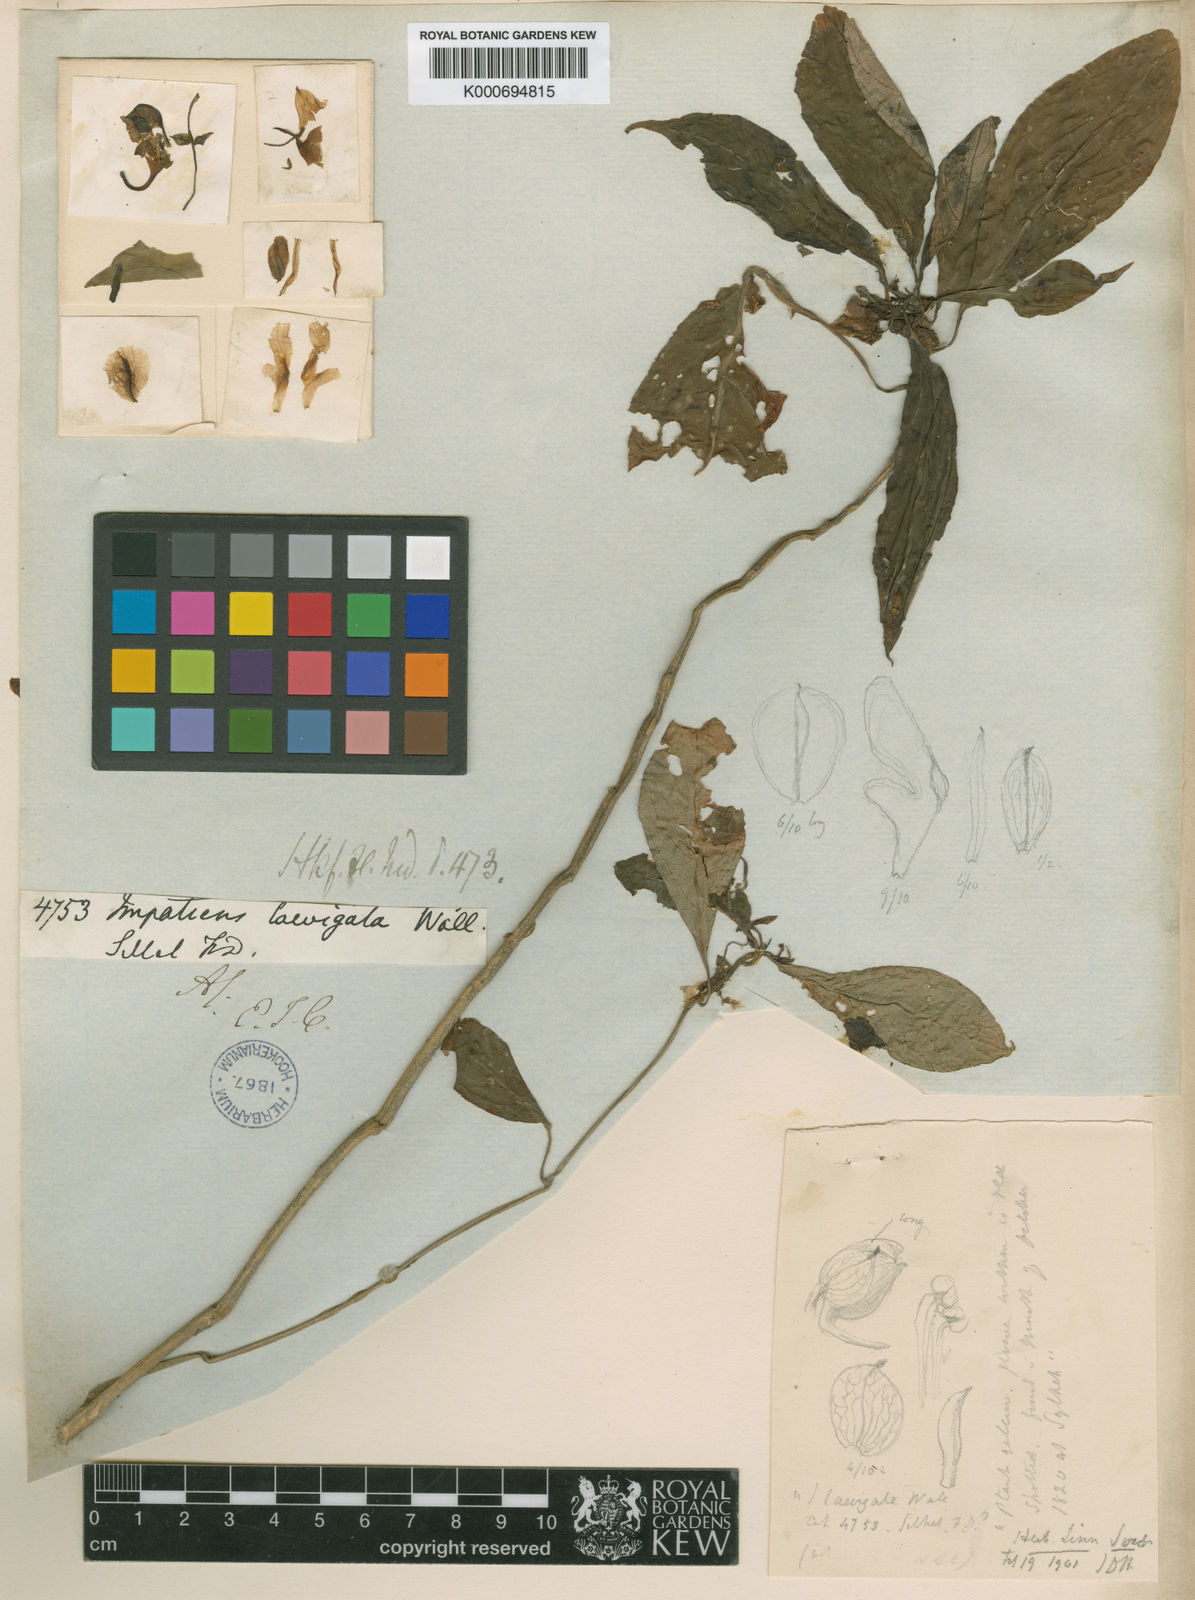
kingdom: Plantae
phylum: Tracheophyta
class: Magnoliopsida
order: Ericales
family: Balsaminaceae
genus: Impatiens
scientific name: Impatiens
